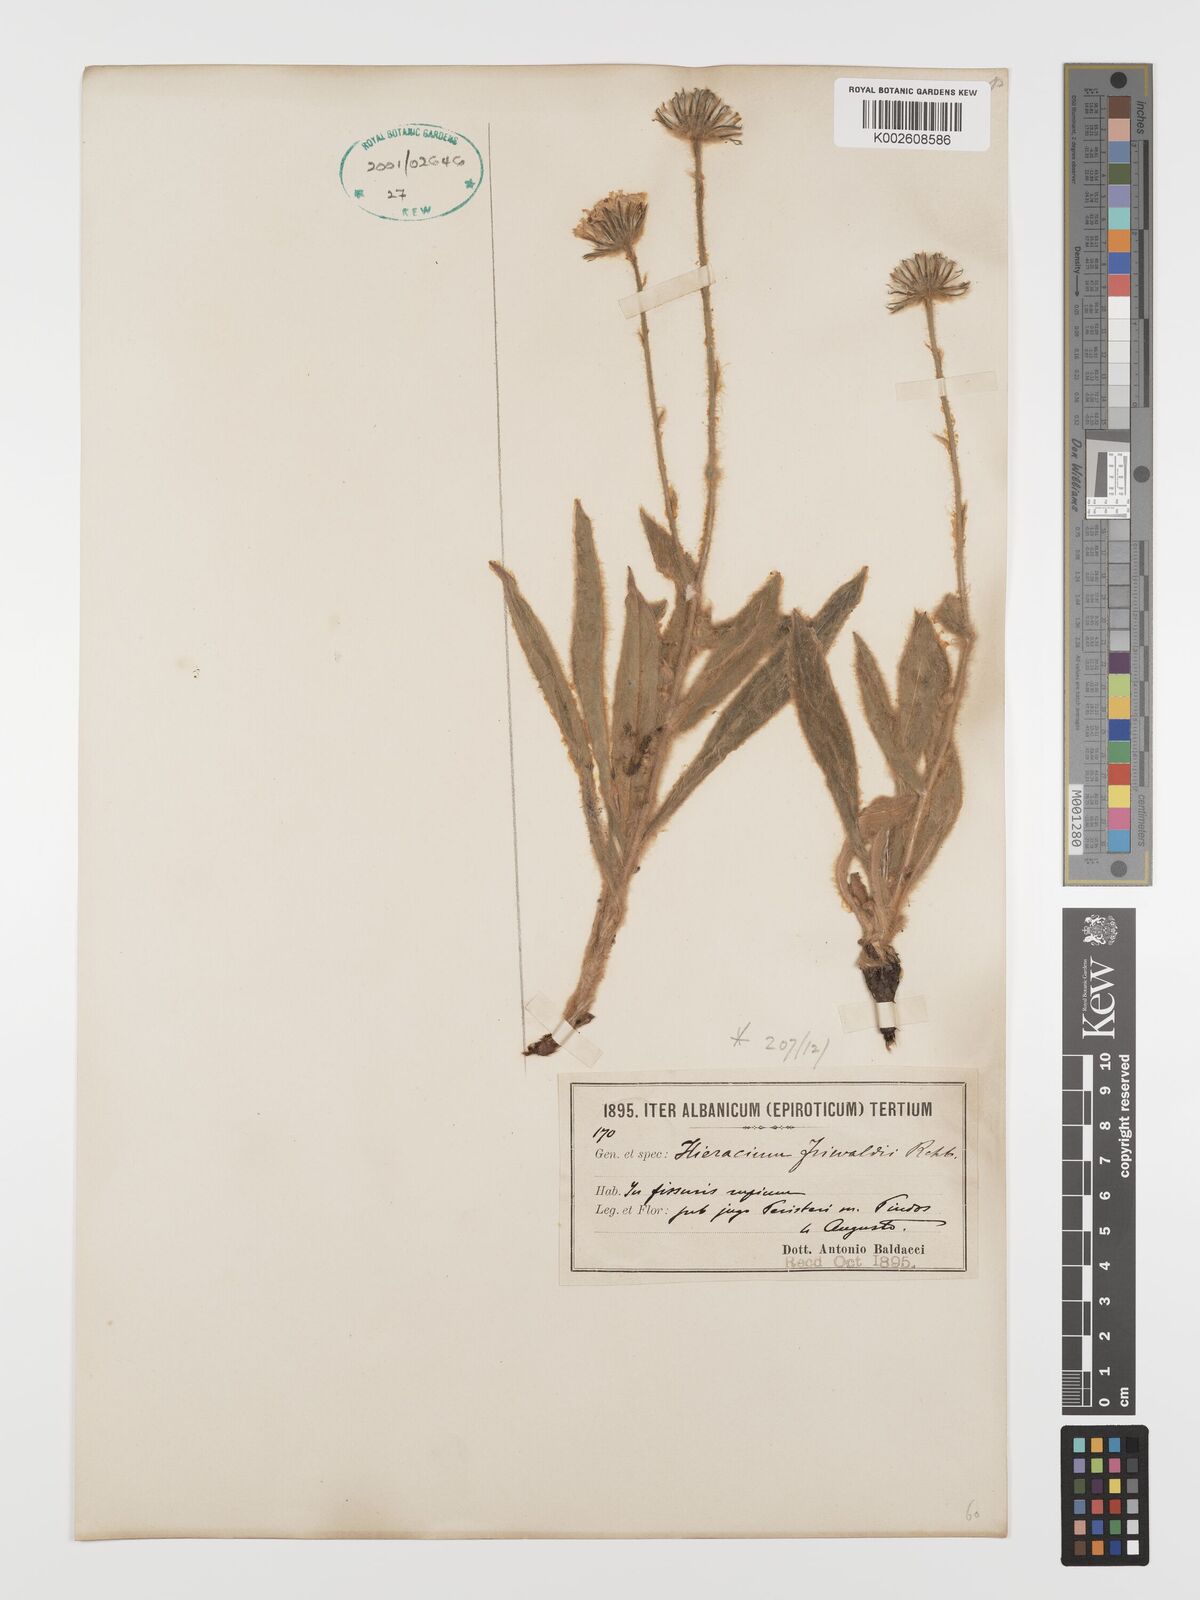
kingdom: Plantae
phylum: Tracheophyta
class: Magnoliopsida
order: Asterales
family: Asteraceae
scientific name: Asteraceae
